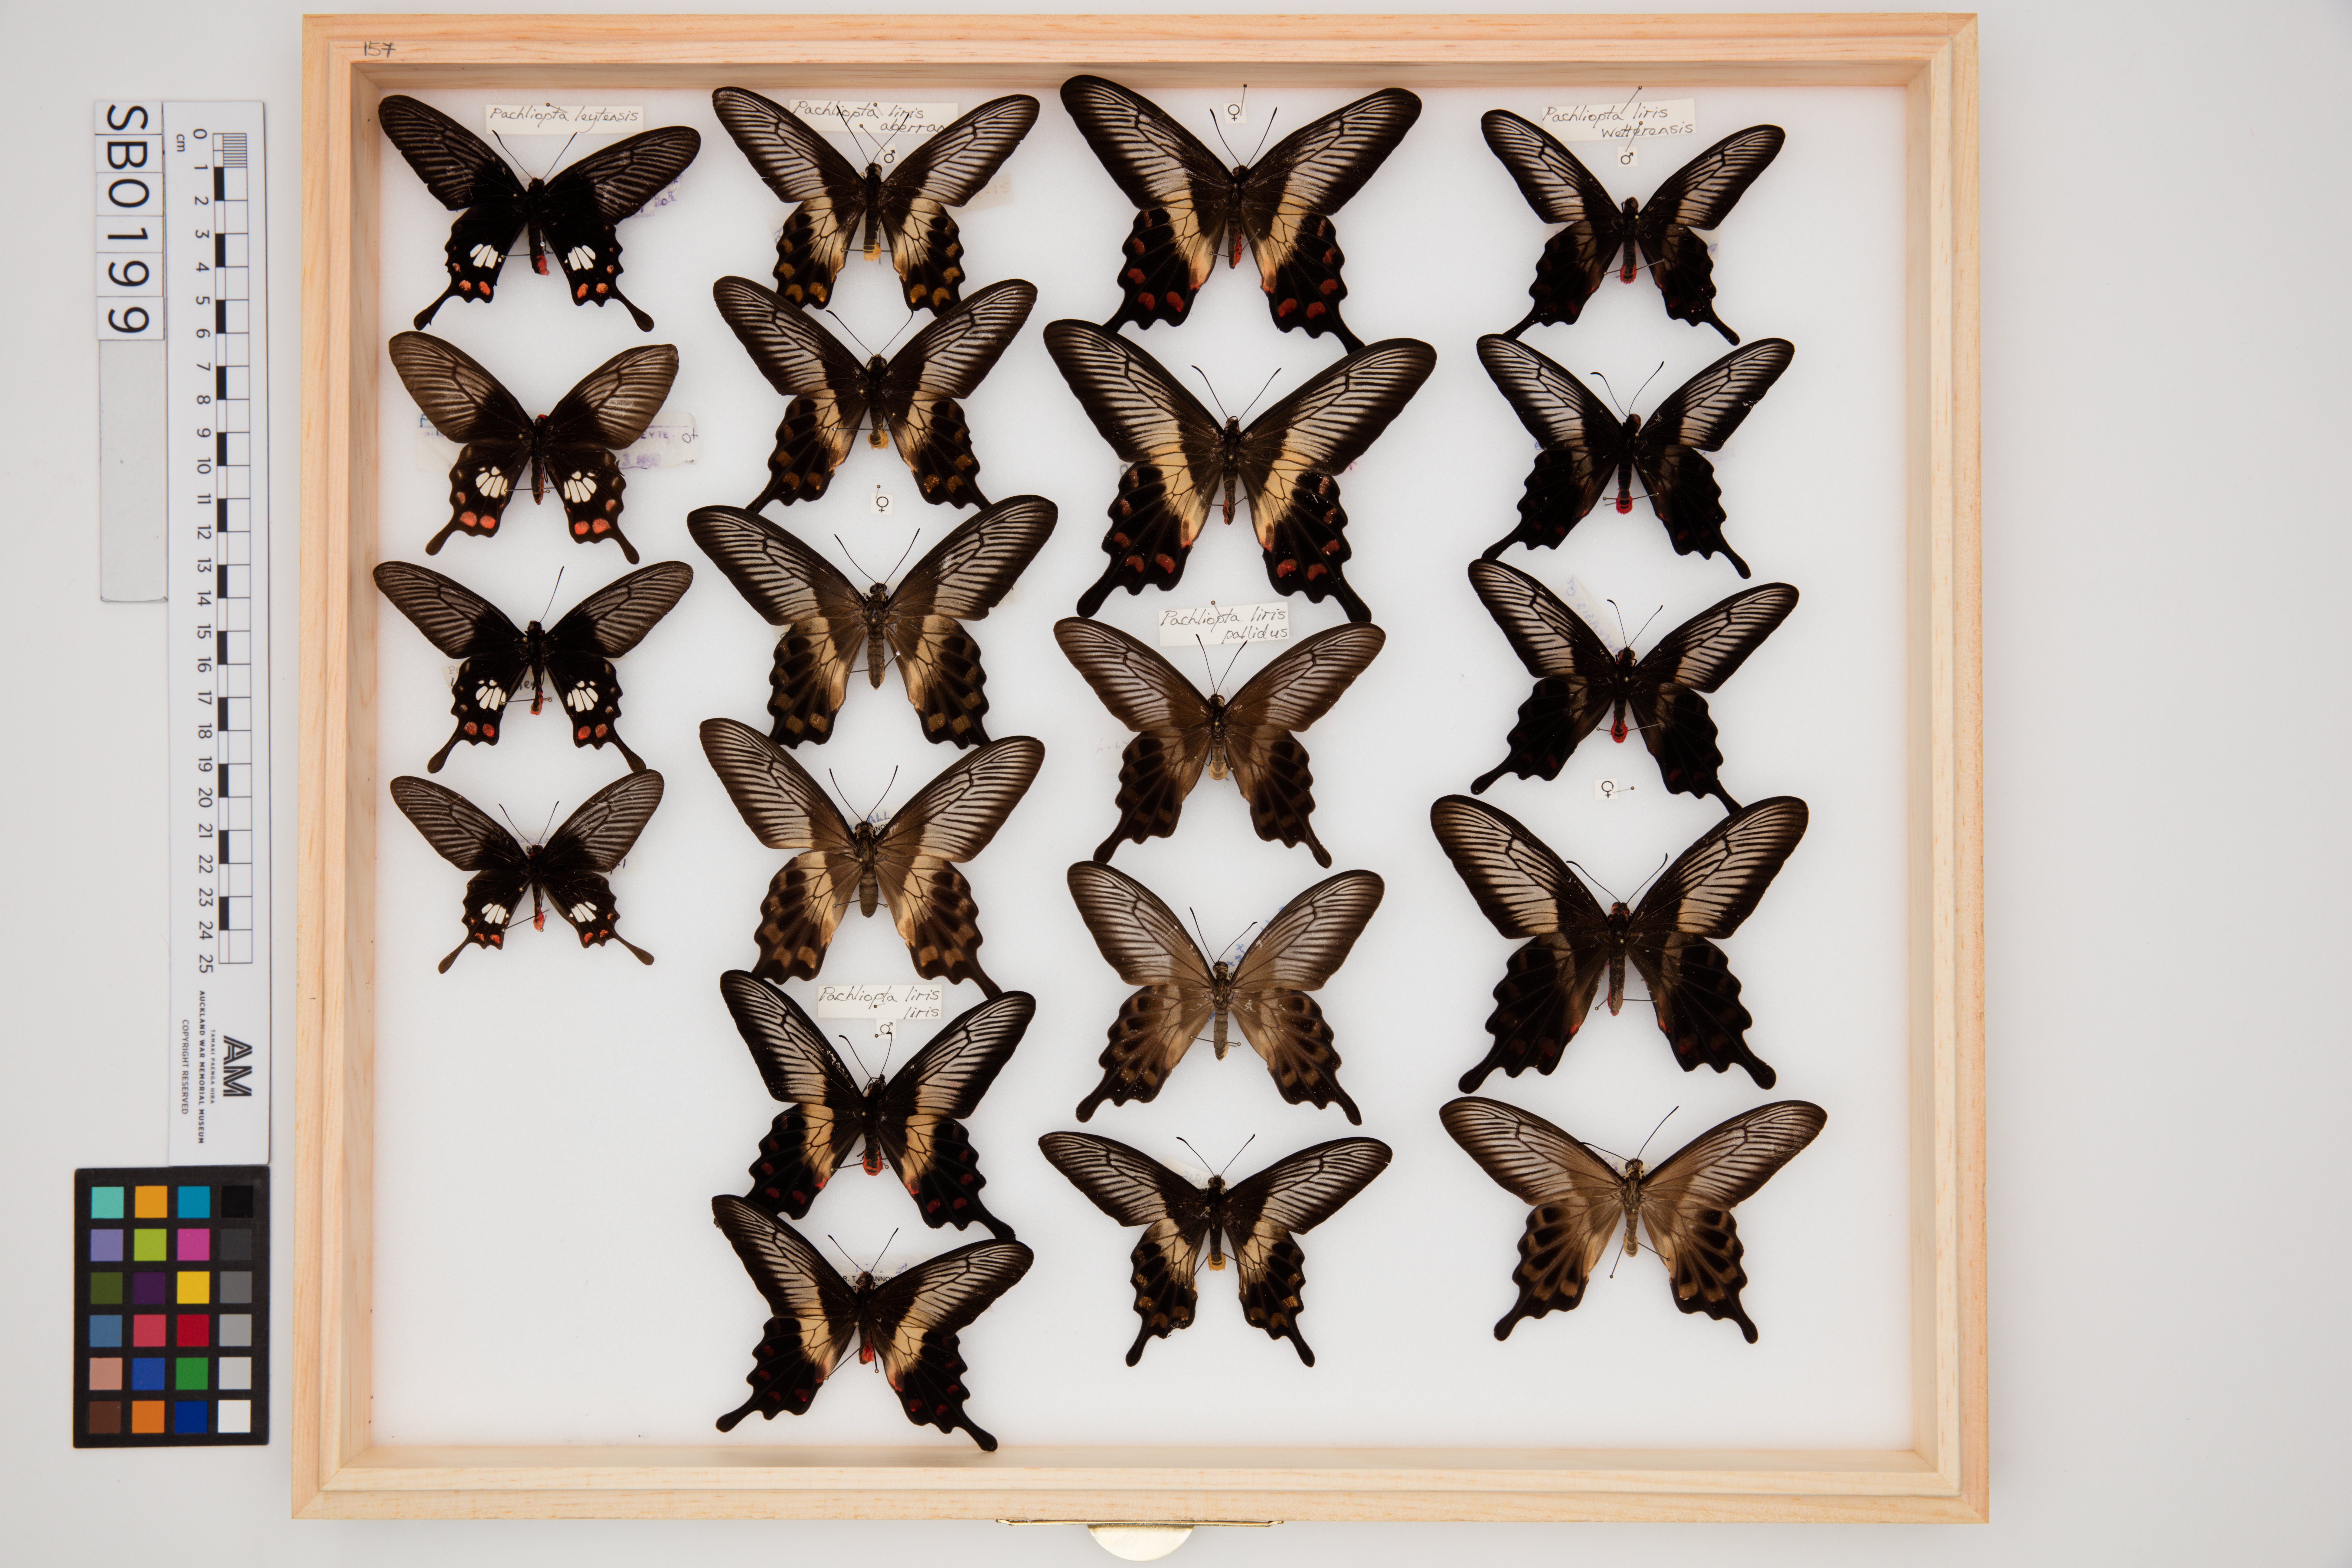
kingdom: Animalia
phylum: Arthropoda
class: Insecta
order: Lepidoptera
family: Papilionidae
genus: Pachliopta
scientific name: Pachliopta leytensis
